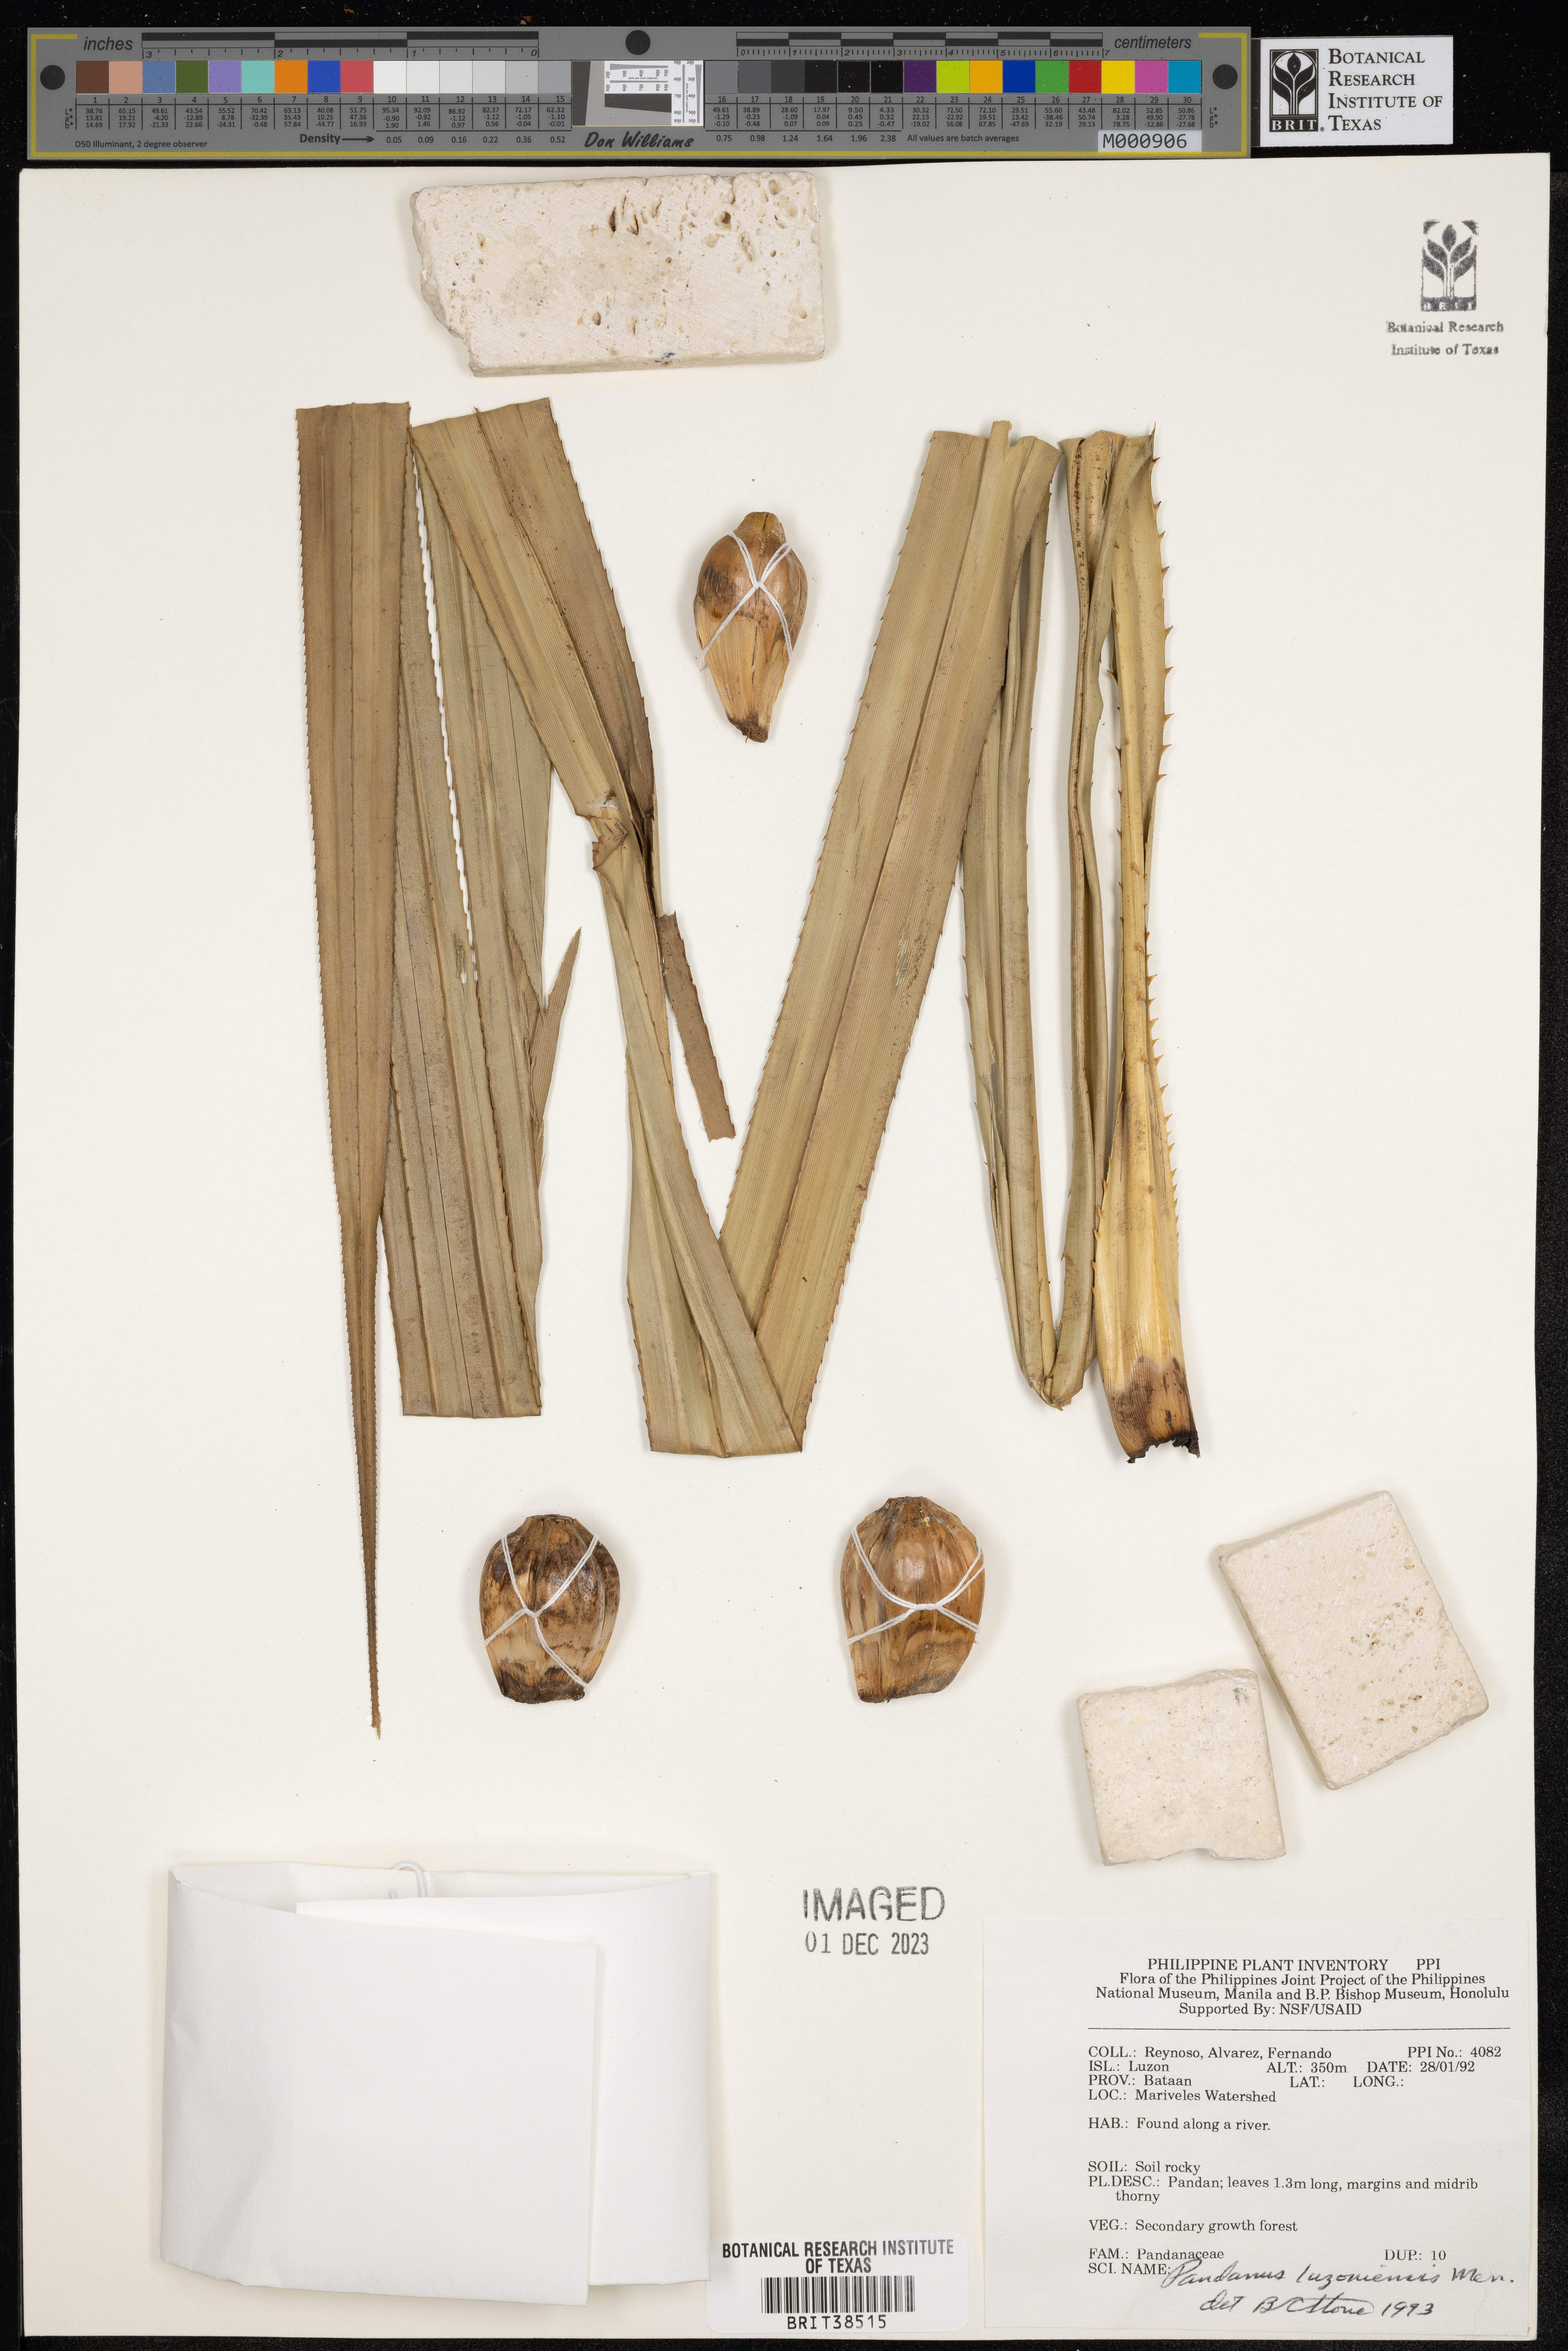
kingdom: Plantae
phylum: Tracheophyta
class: Liliopsida
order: Pandanales
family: Pandanaceae
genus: Pandanus
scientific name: Pandanus luzonensis
